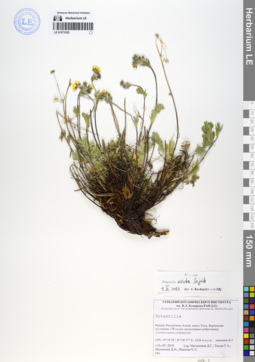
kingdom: Plantae
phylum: Tracheophyta
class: Magnoliopsida
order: Rosales
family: Rosaceae
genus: Potentilla
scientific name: Potentilla exuta
